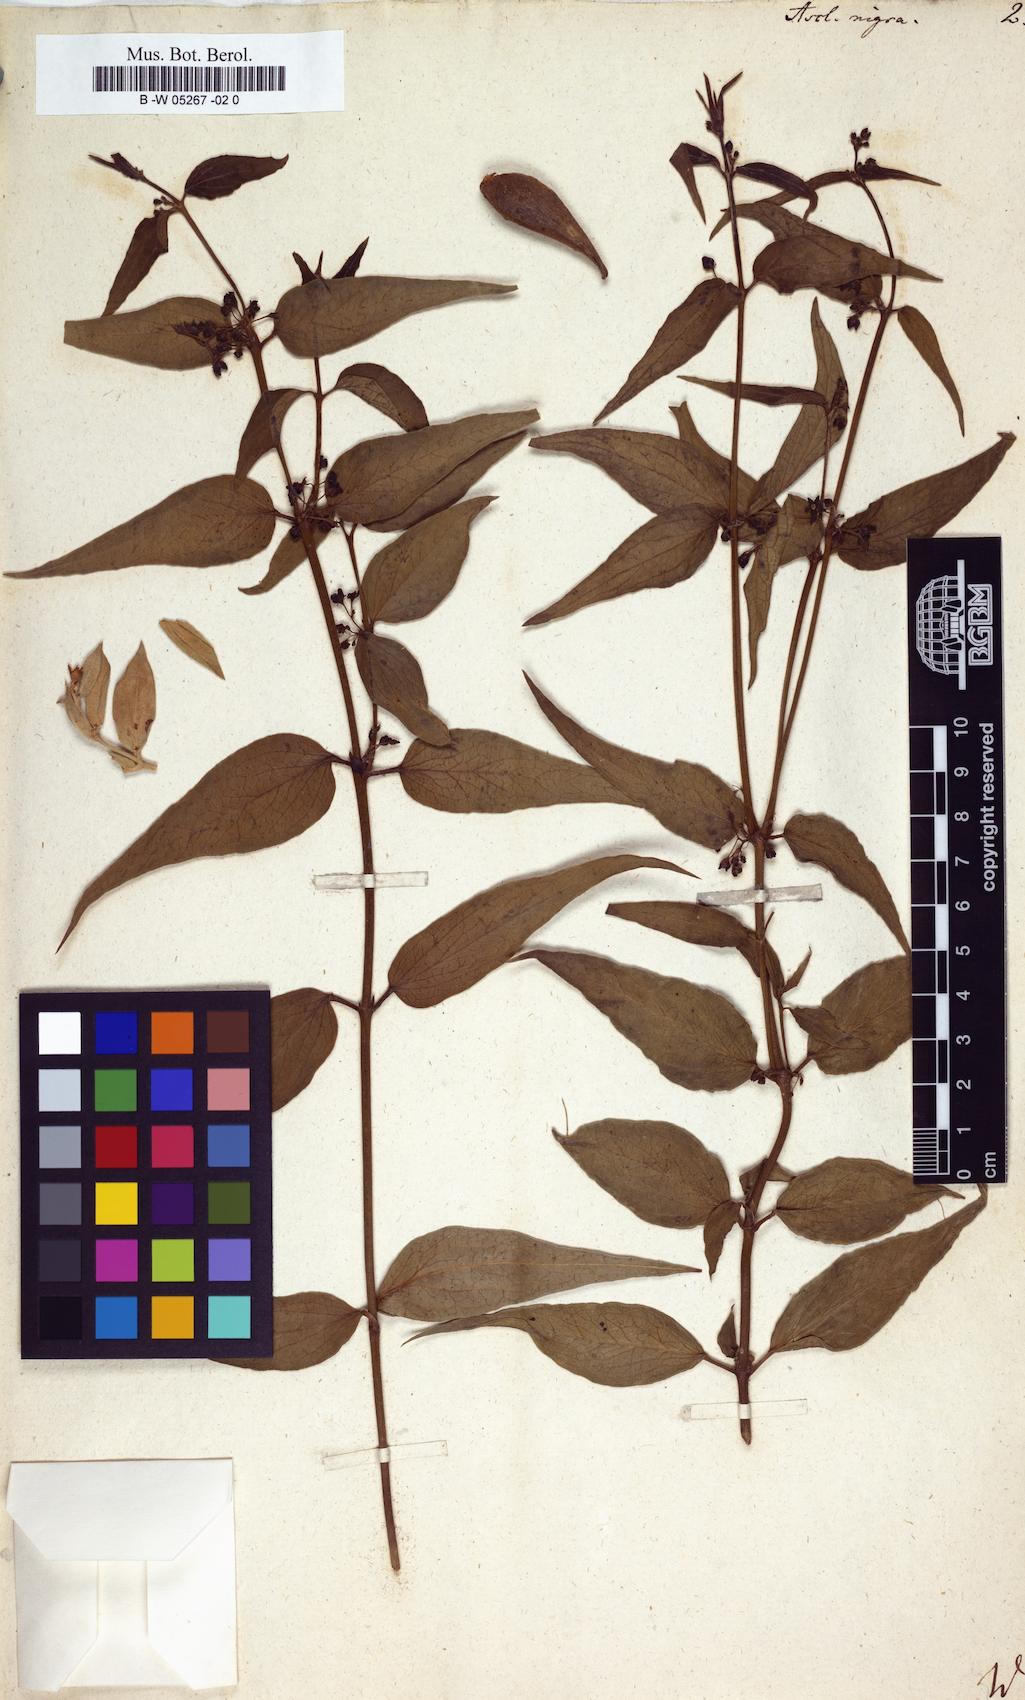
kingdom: Plantae
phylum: Tracheophyta
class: Magnoliopsida
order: Gentianales
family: Apocynaceae
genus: Vincetoxicum
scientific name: Vincetoxicum nigrum
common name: Black swallow-wort
